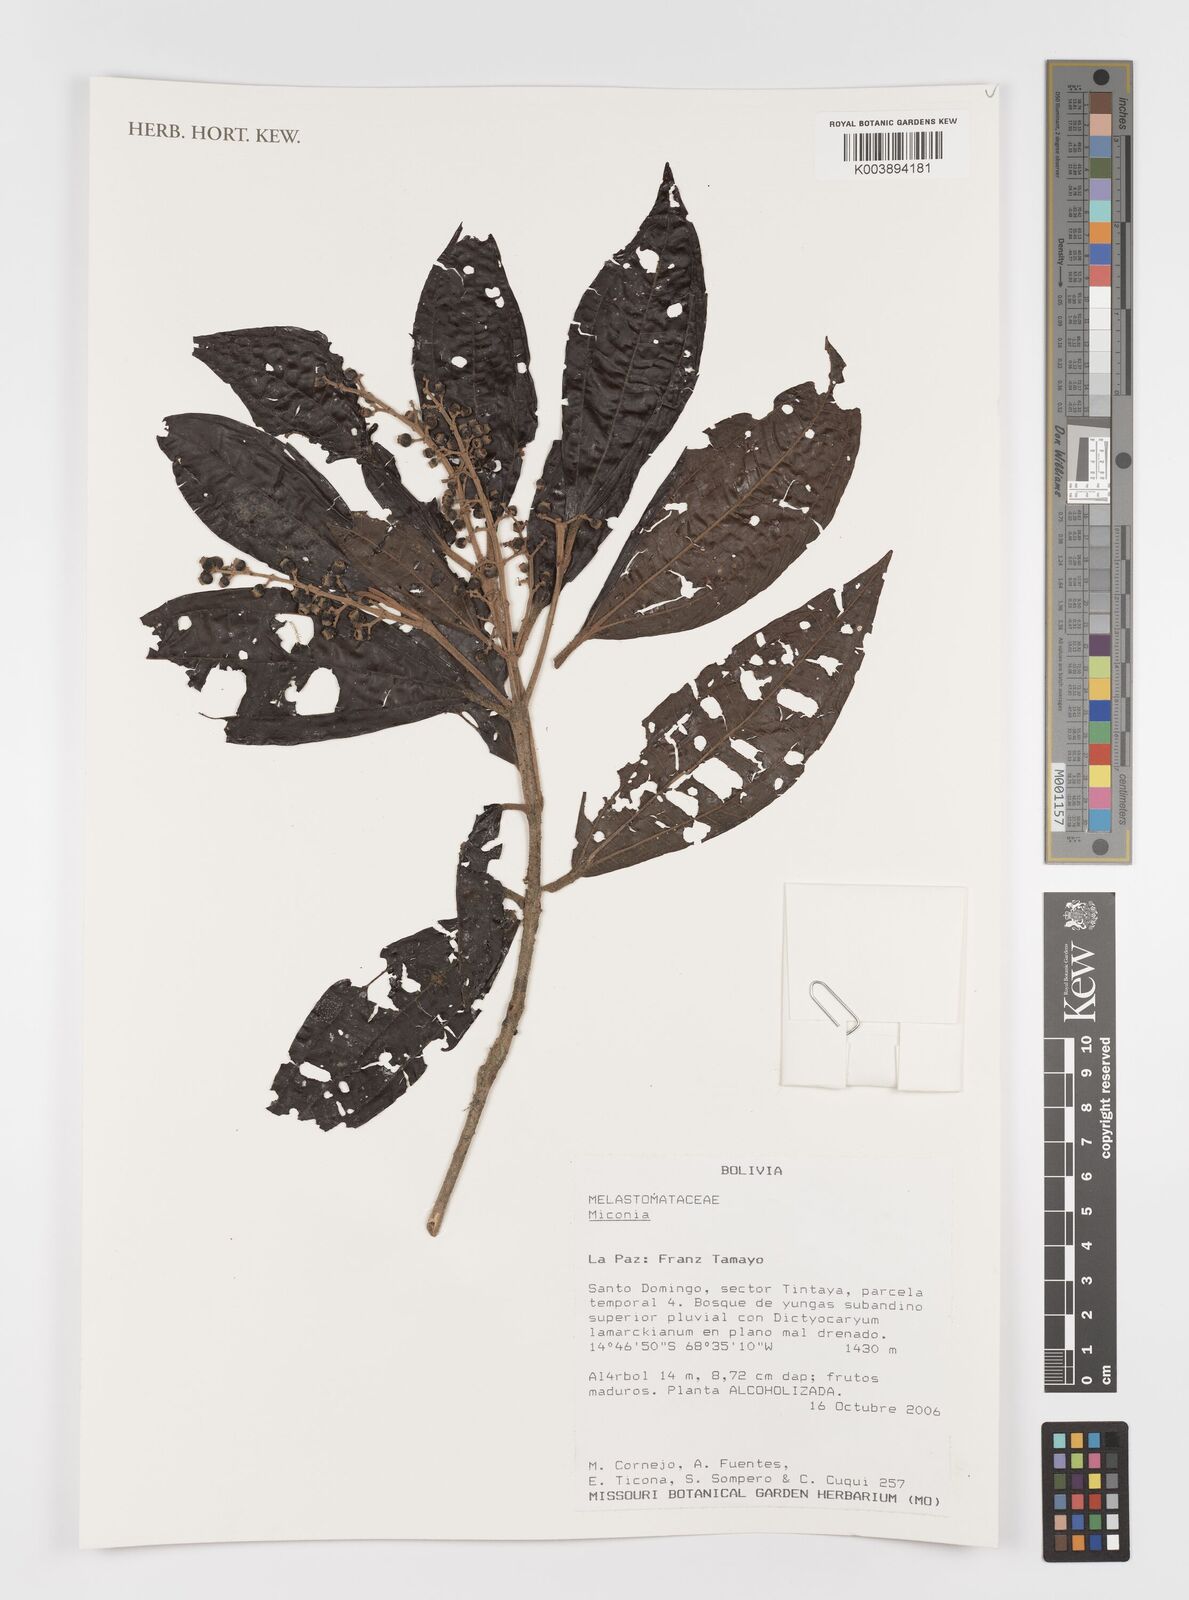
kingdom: Plantae
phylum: Tracheophyta
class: Magnoliopsida
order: Myrtales
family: Melastomataceae
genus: Miconia
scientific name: Miconia
